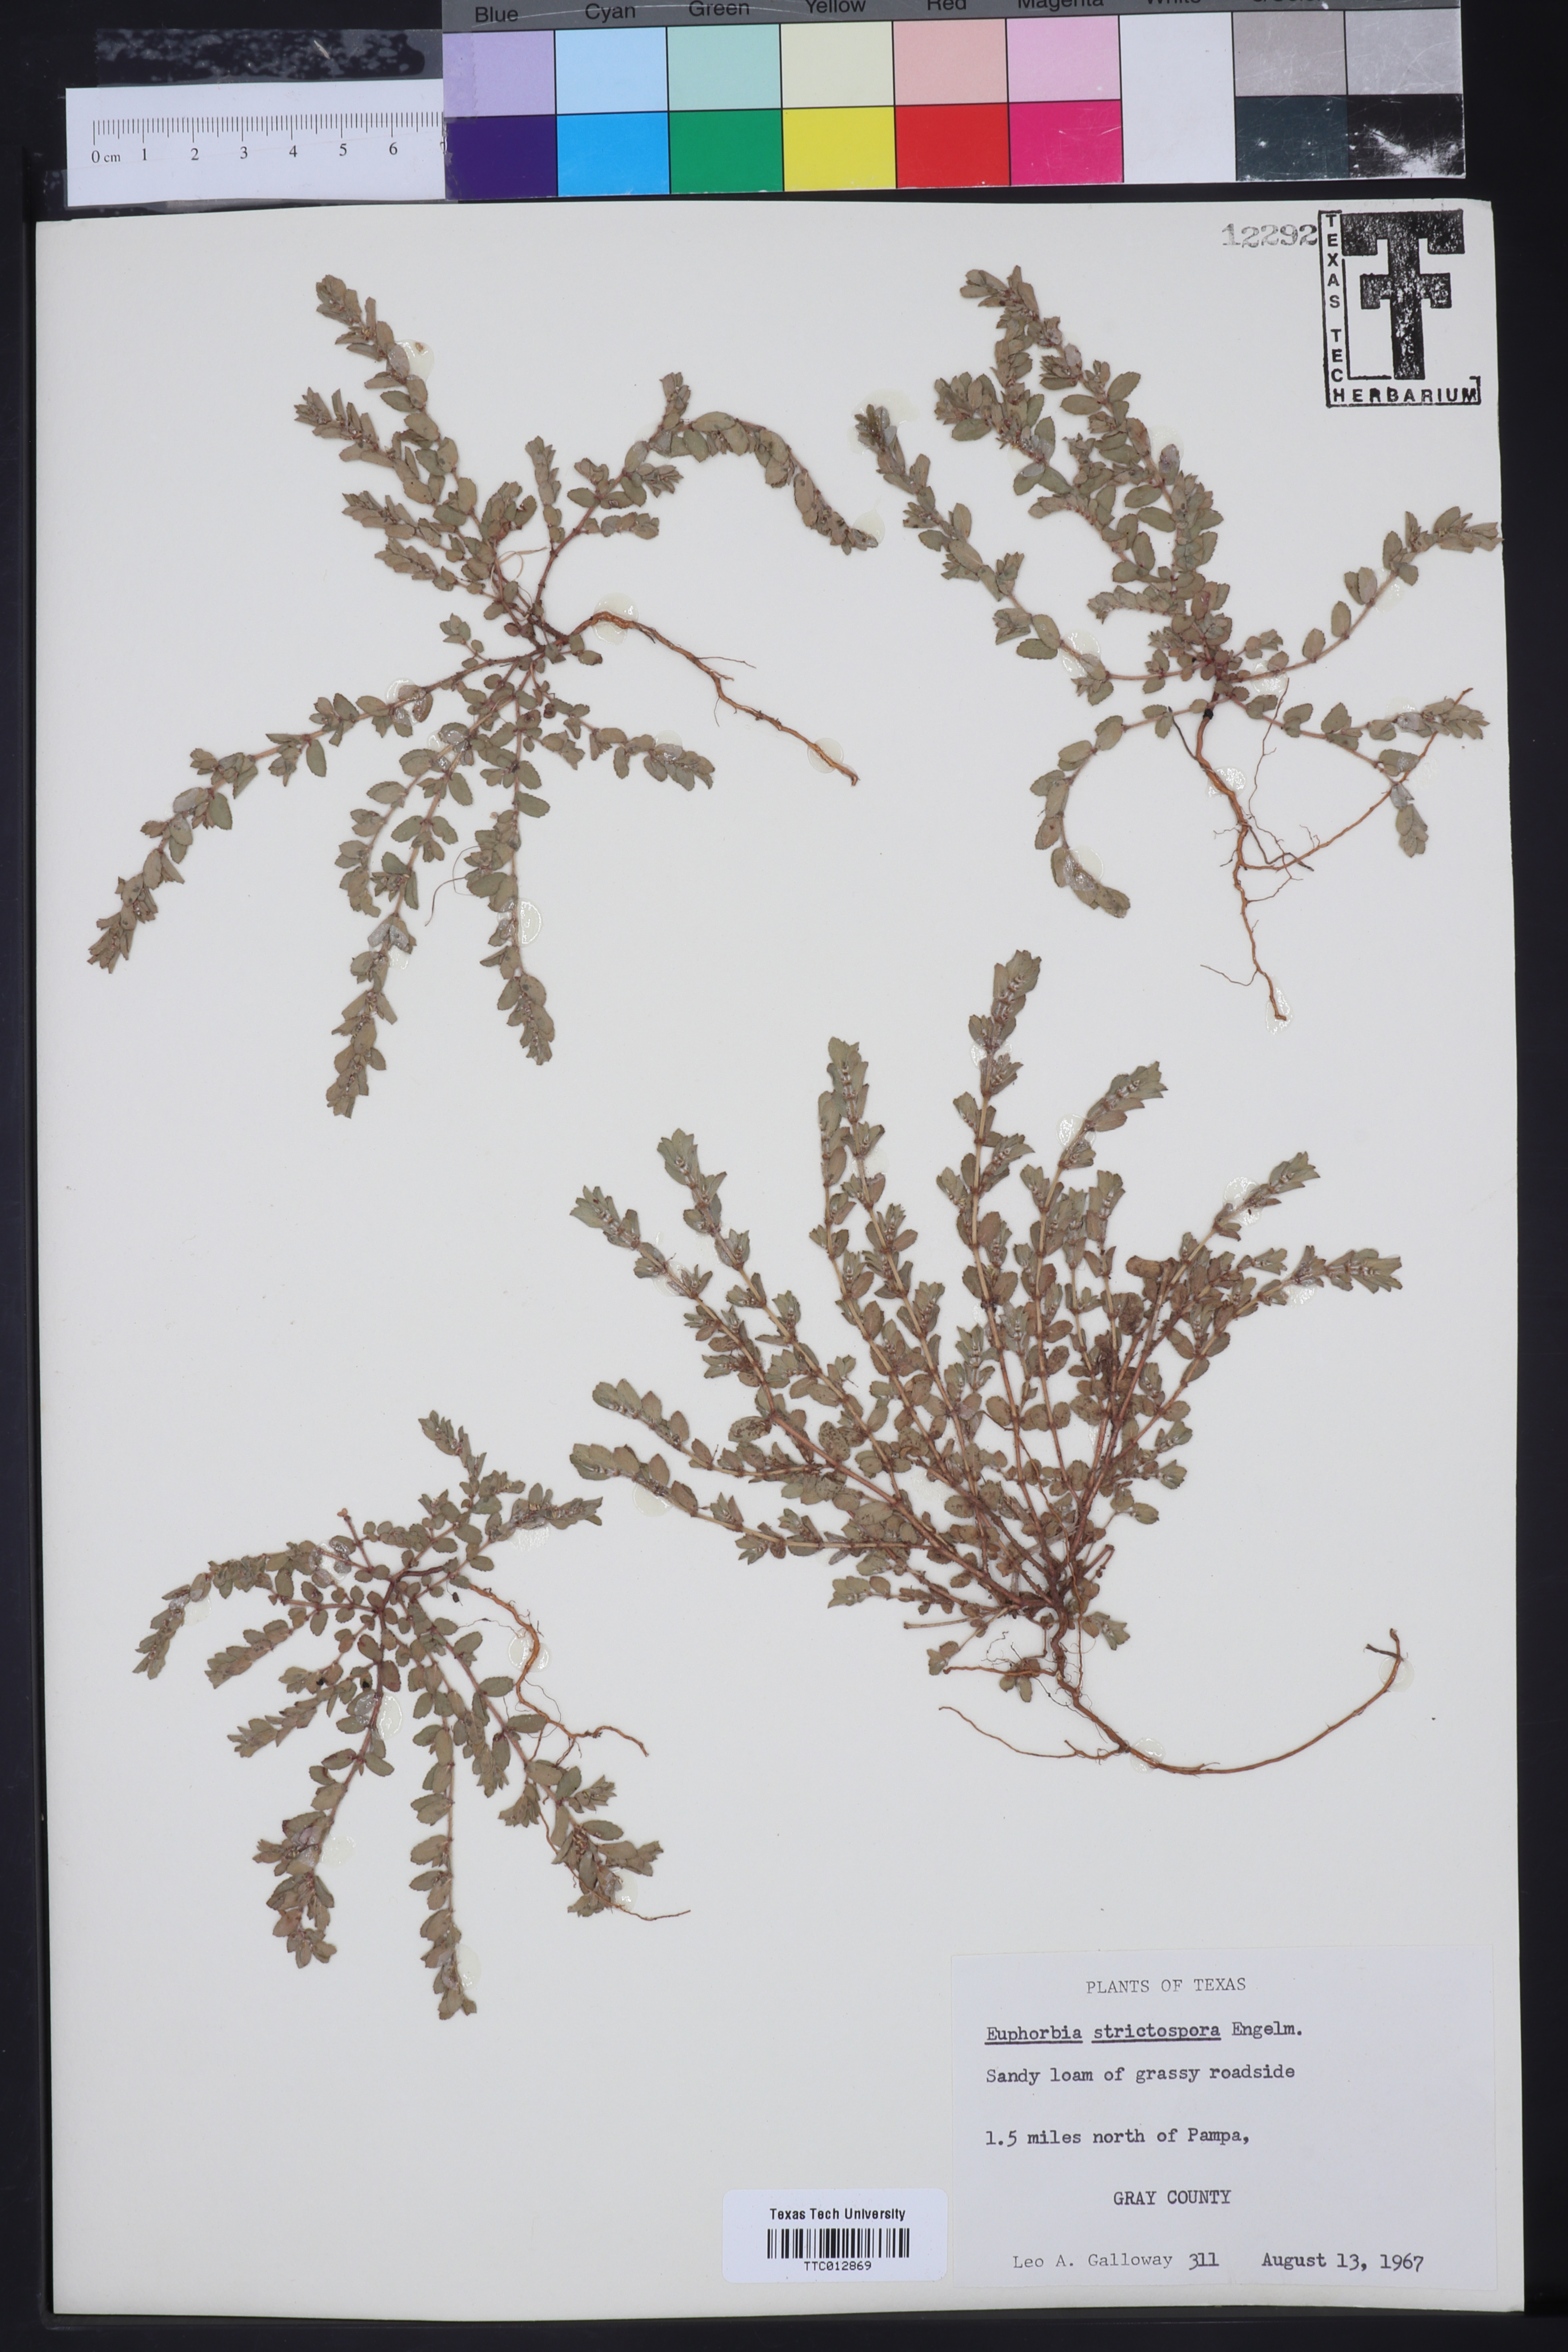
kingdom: Plantae
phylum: Tracheophyta
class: Magnoliopsida
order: Malpighiales
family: Euphorbiaceae
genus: Euphorbia
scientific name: Euphorbia
